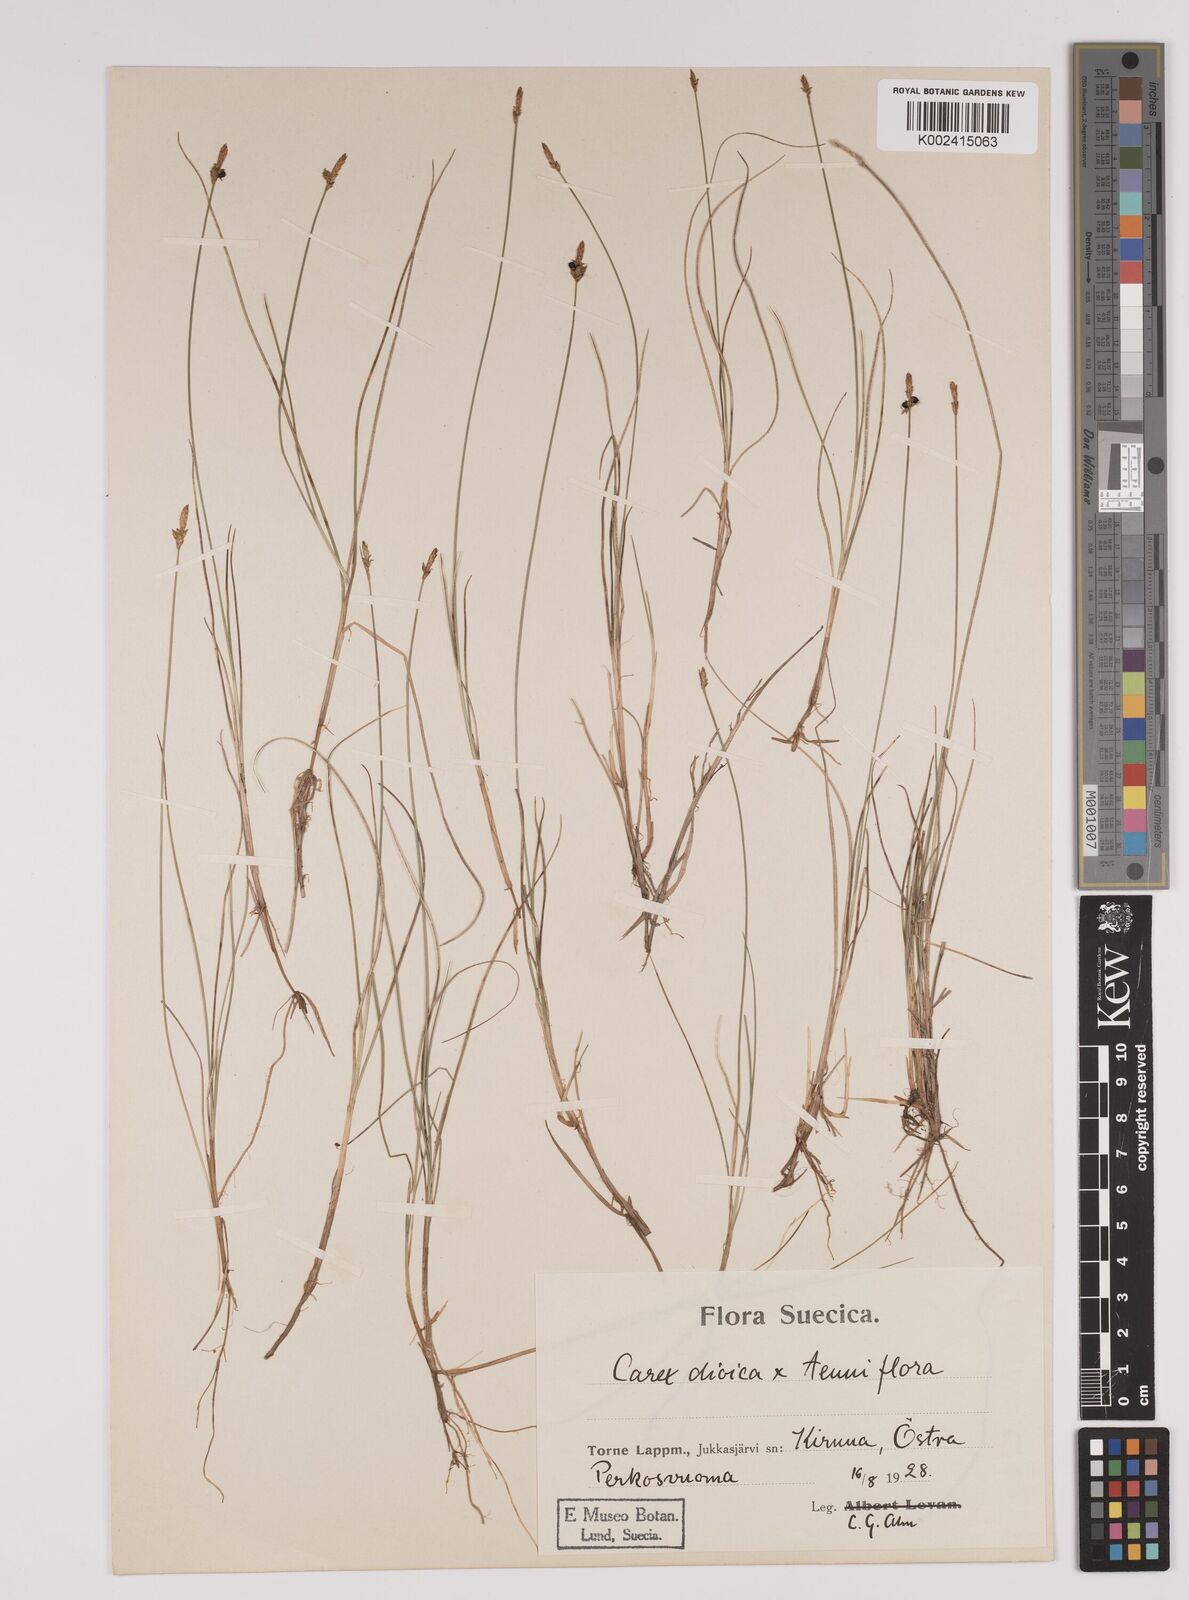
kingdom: Plantae
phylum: Tracheophyta
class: Liliopsida
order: Poales
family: Cyperaceae
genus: Carex
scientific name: Carex dioica
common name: Dioecious sedge
